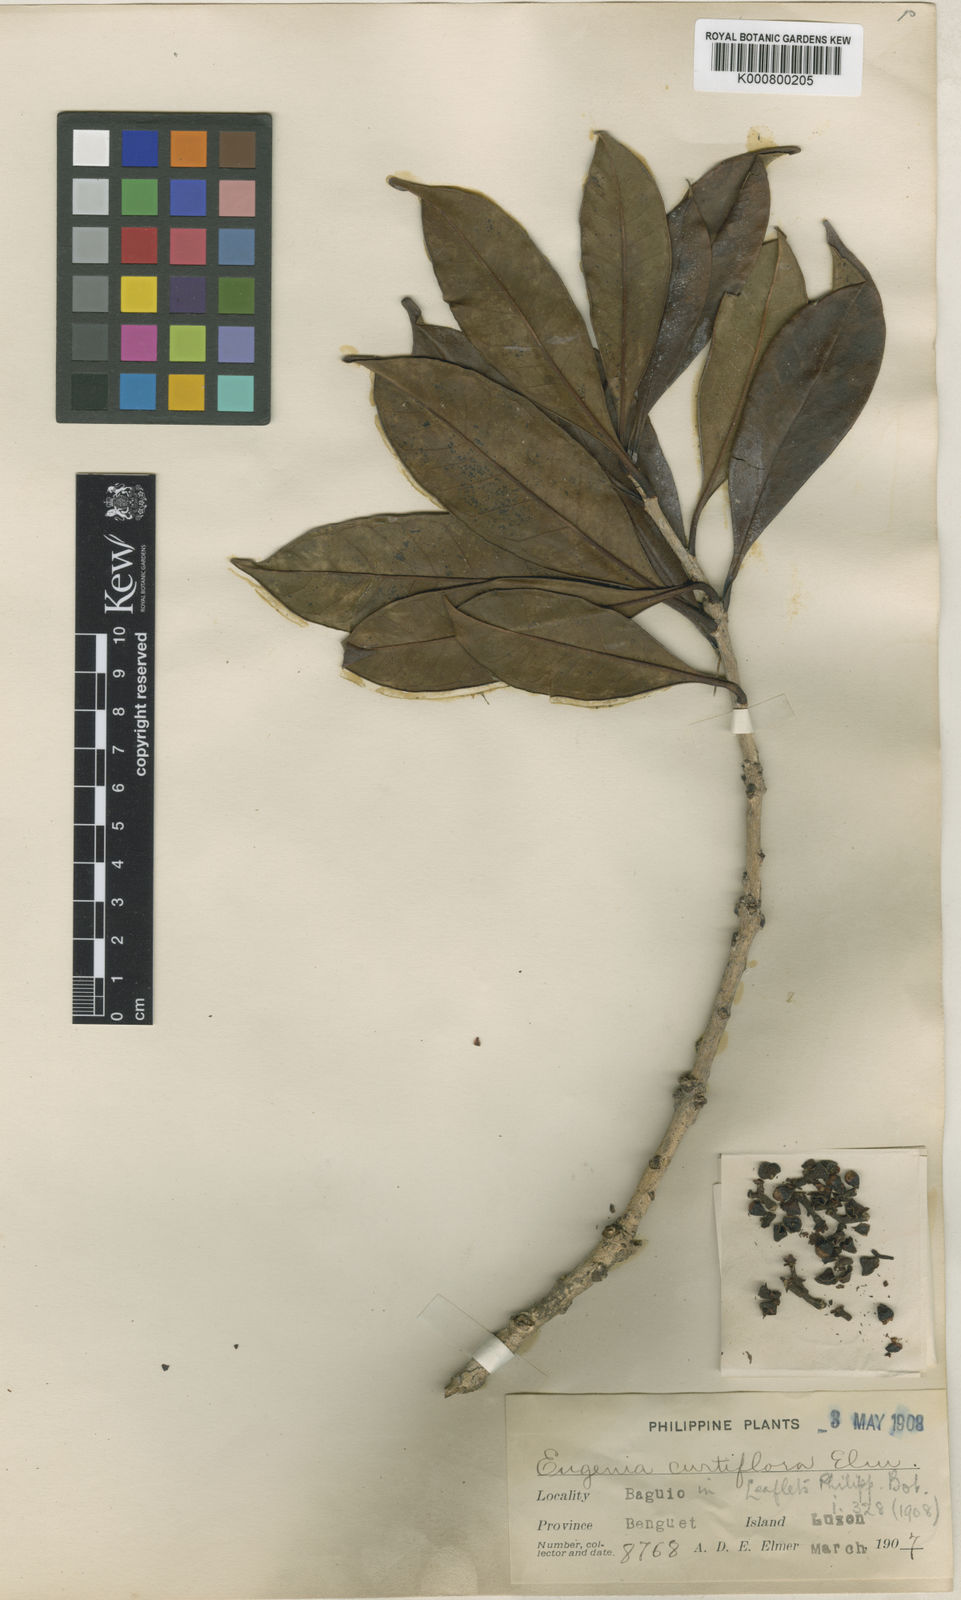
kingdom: Plantae
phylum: Tracheophyta
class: Magnoliopsida
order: Myrtales
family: Myrtaceae
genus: Syzygium
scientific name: Syzygium curtiflorum
